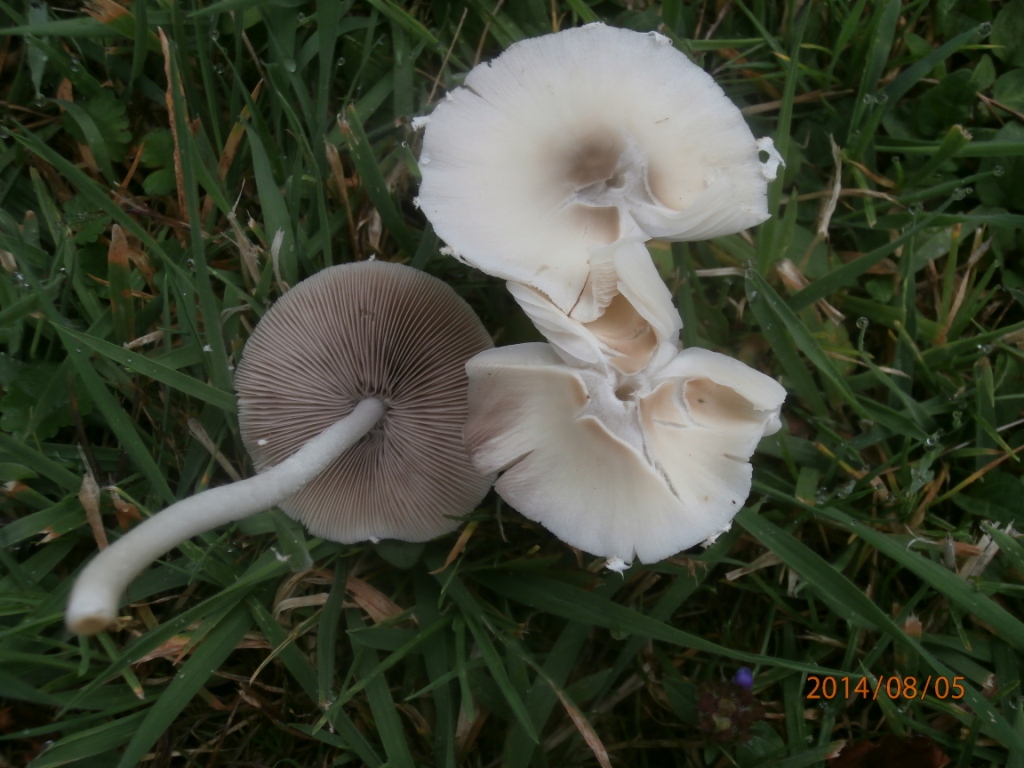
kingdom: Fungi
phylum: Basidiomycota
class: Agaricomycetes
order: Agaricales
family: Psathyrellaceae
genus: Candolleomyces
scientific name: Candolleomyces candolleanus
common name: Candolles mørkhat
